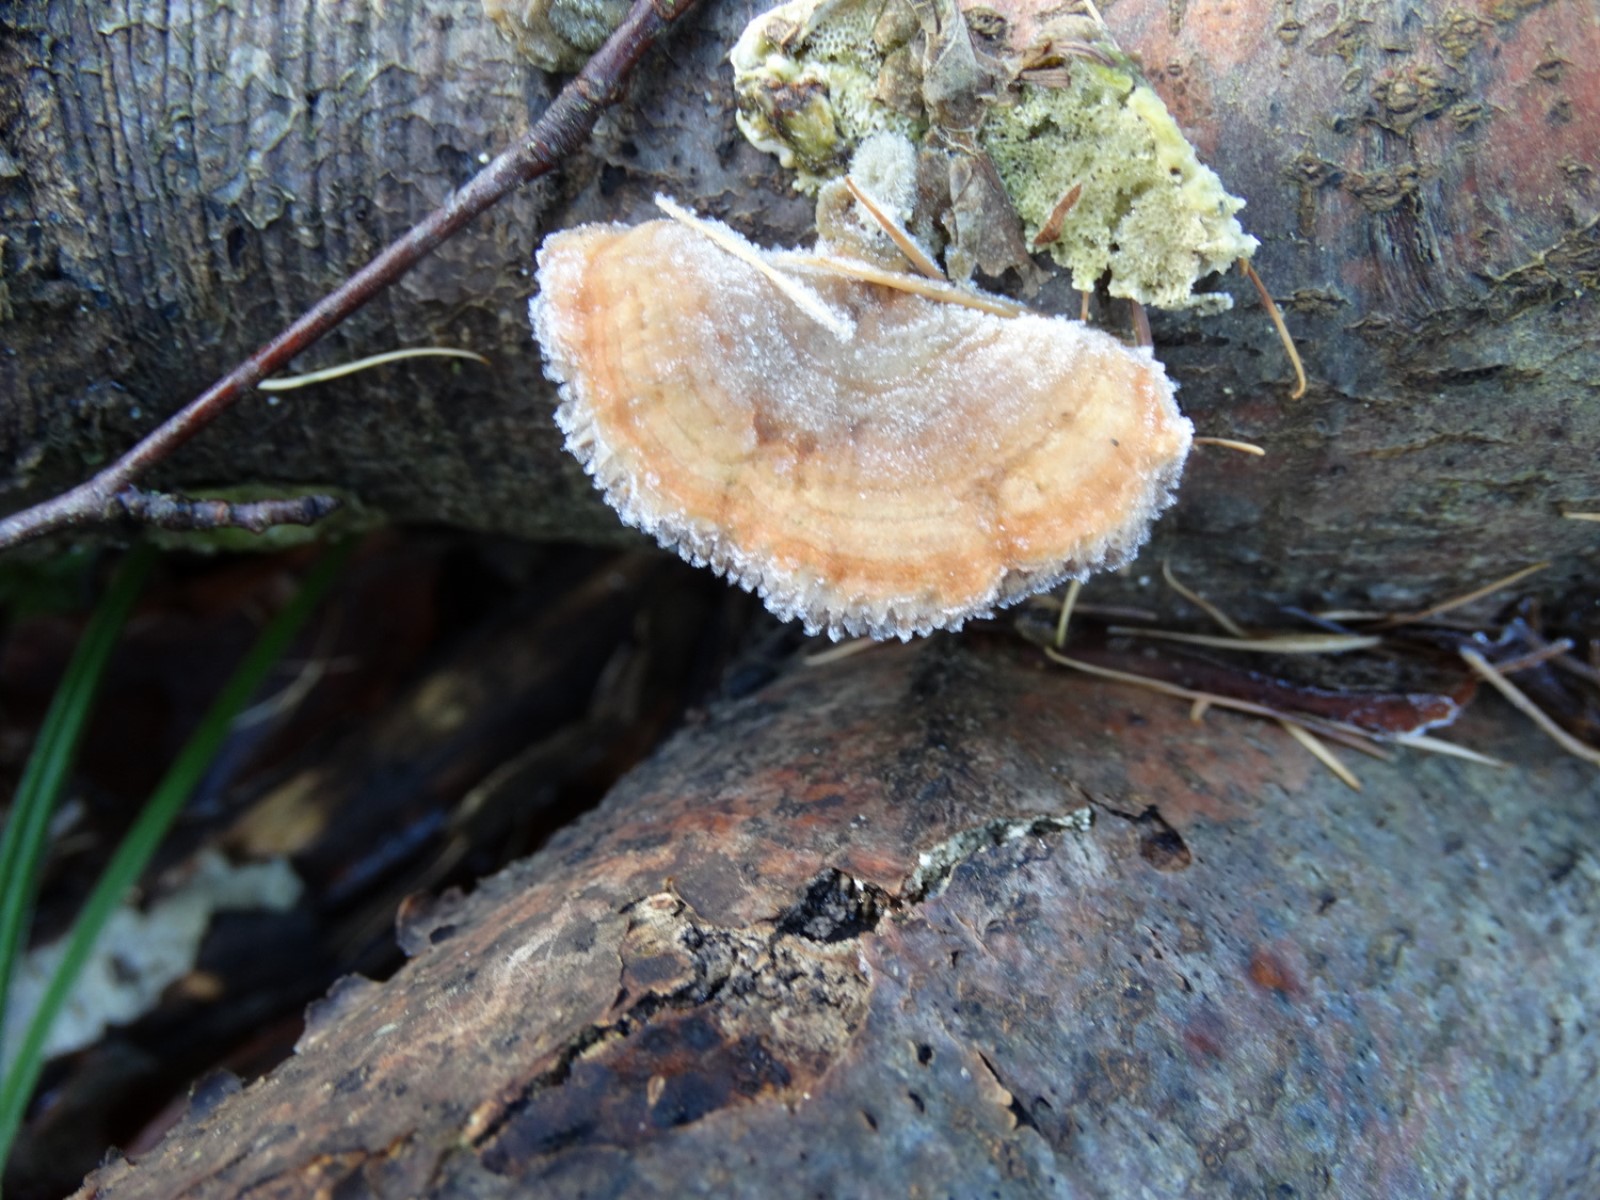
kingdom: Fungi
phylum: Basidiomycota
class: Agaricomycetes
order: Polyporales
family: Polyporaceae
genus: Lenzites
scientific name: Lenzites betulinus
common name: birke-læderporesvamp
